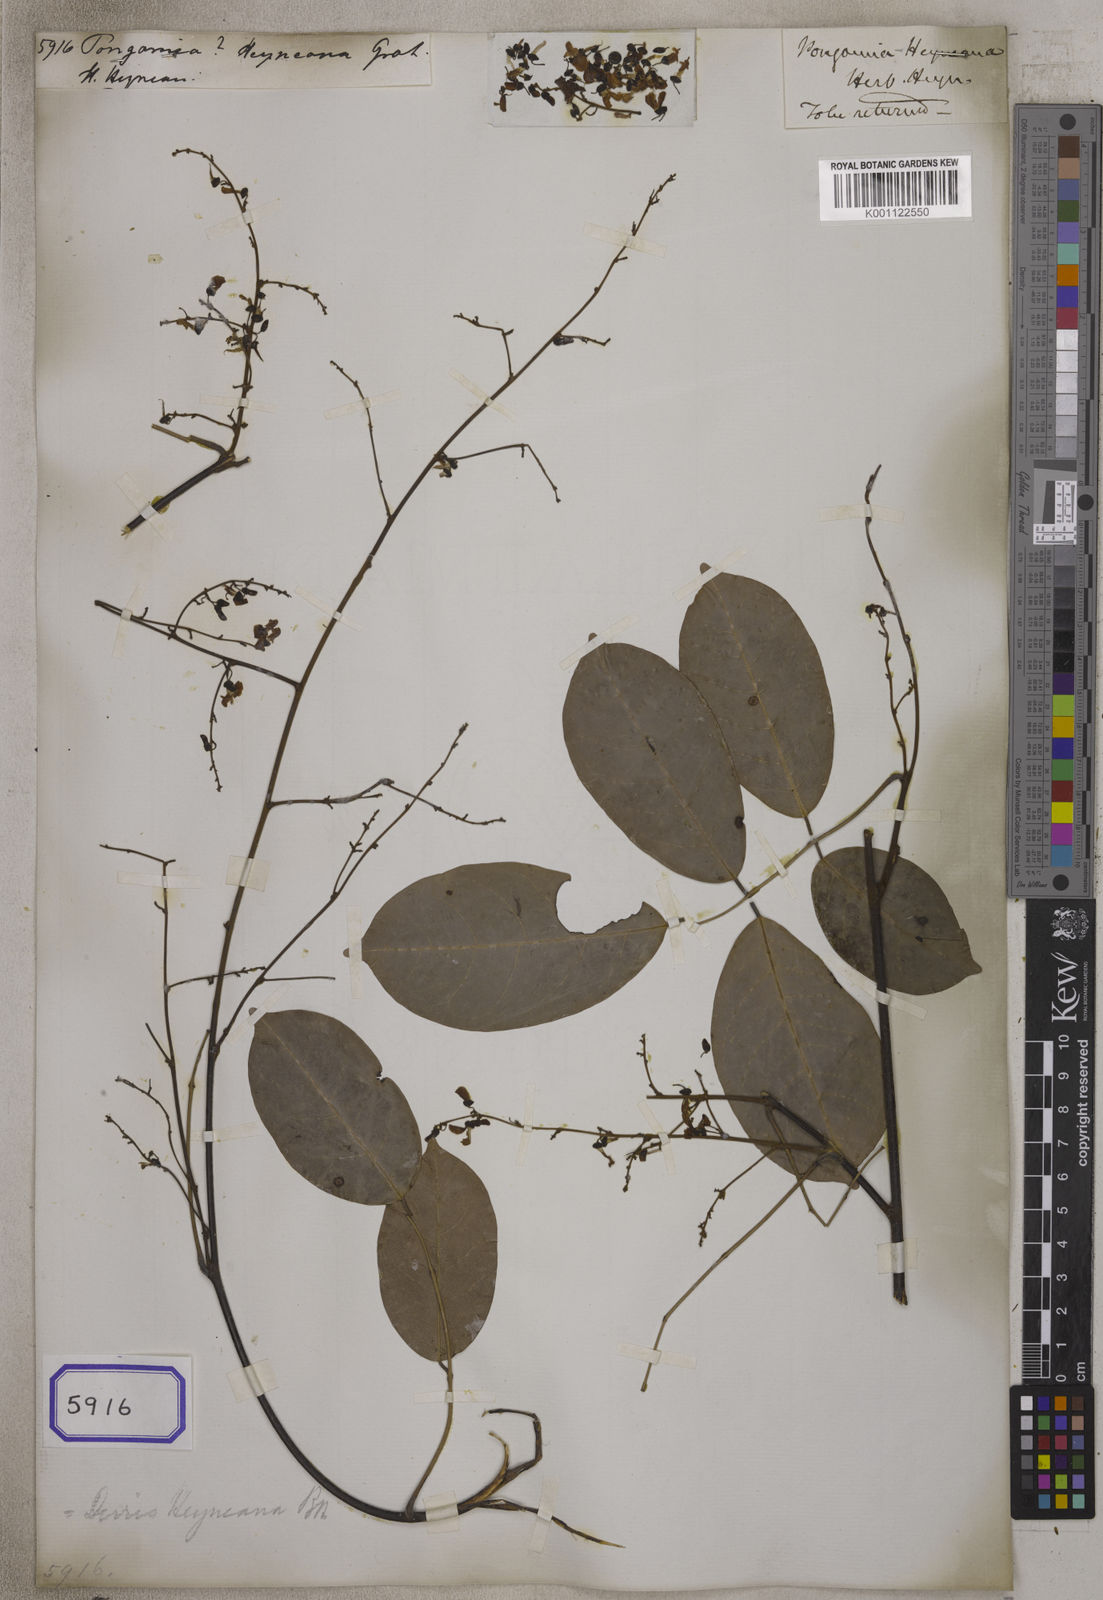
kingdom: Plantae
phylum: Tracheophyta
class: Magnoliopsida
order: Fabales
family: Fabaceae
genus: Pongamia
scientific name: Pongamia
